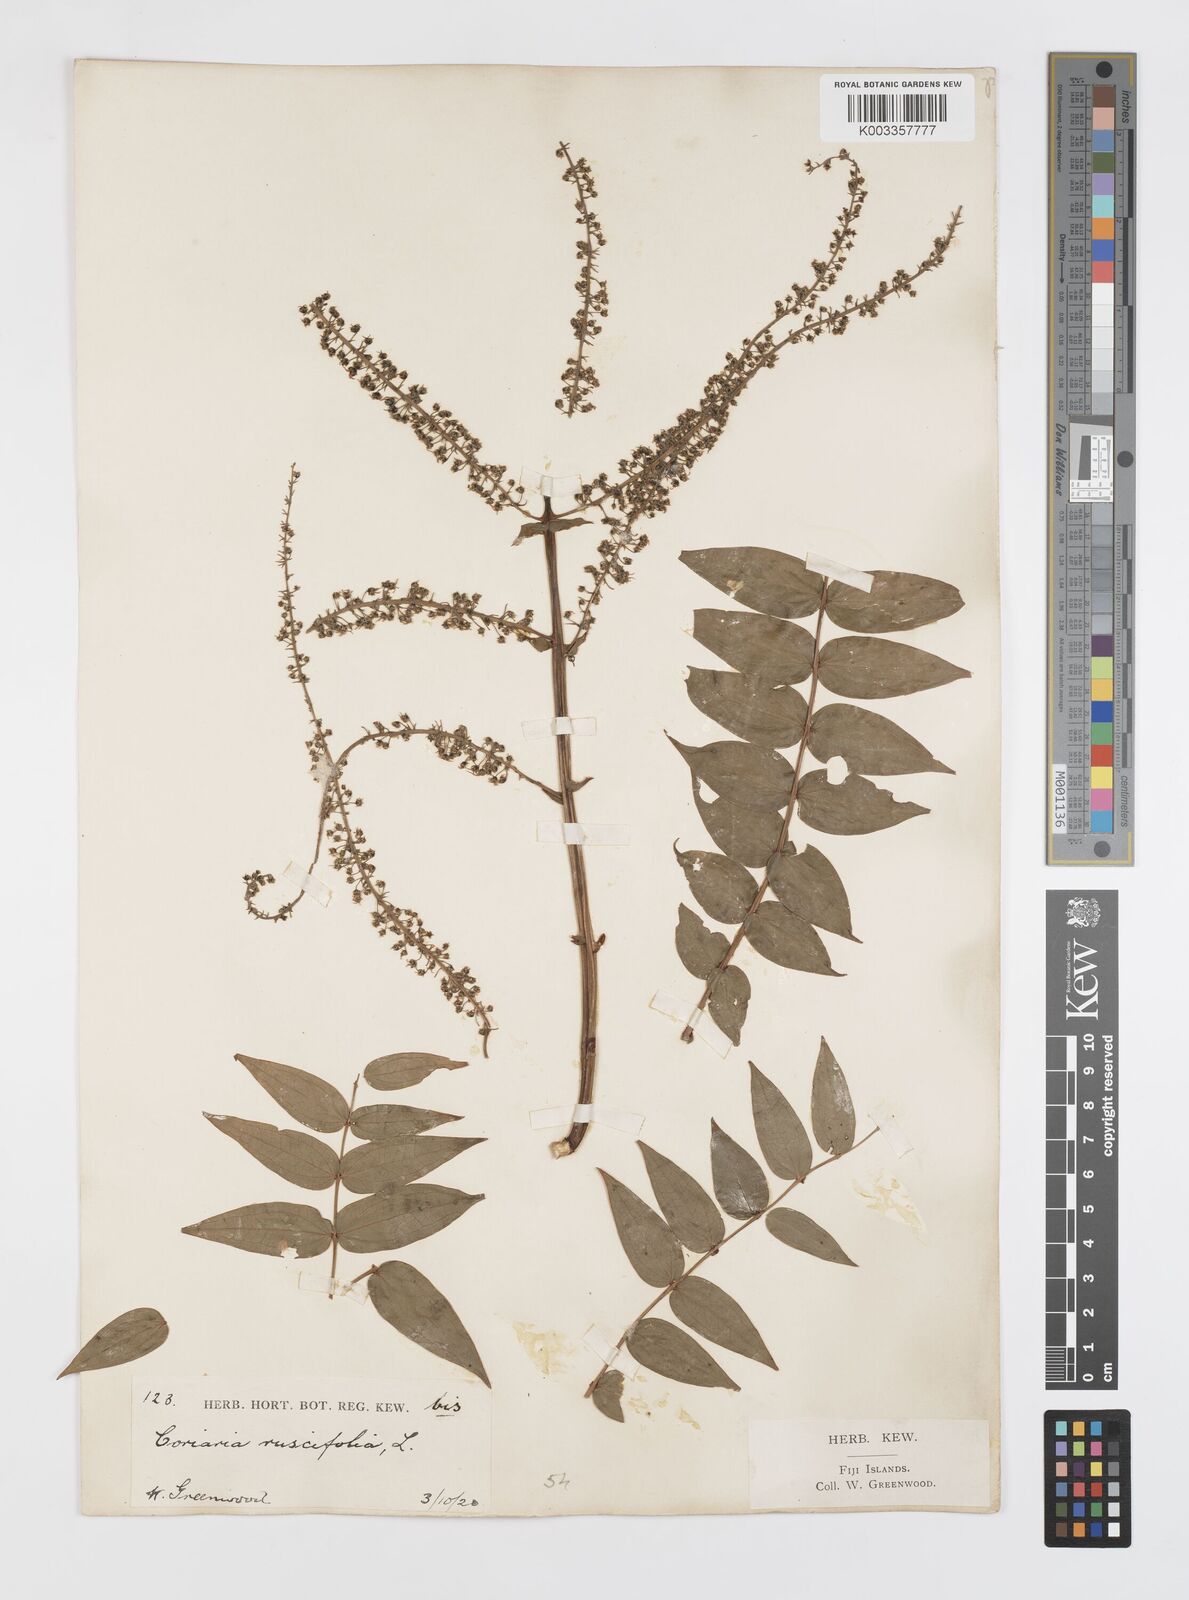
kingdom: Plantae
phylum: Tracheophyta
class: Magnoliopsida
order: Cucurbitales
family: Coriariaceae
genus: Coriaria
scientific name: Coriaria ruscifolia
